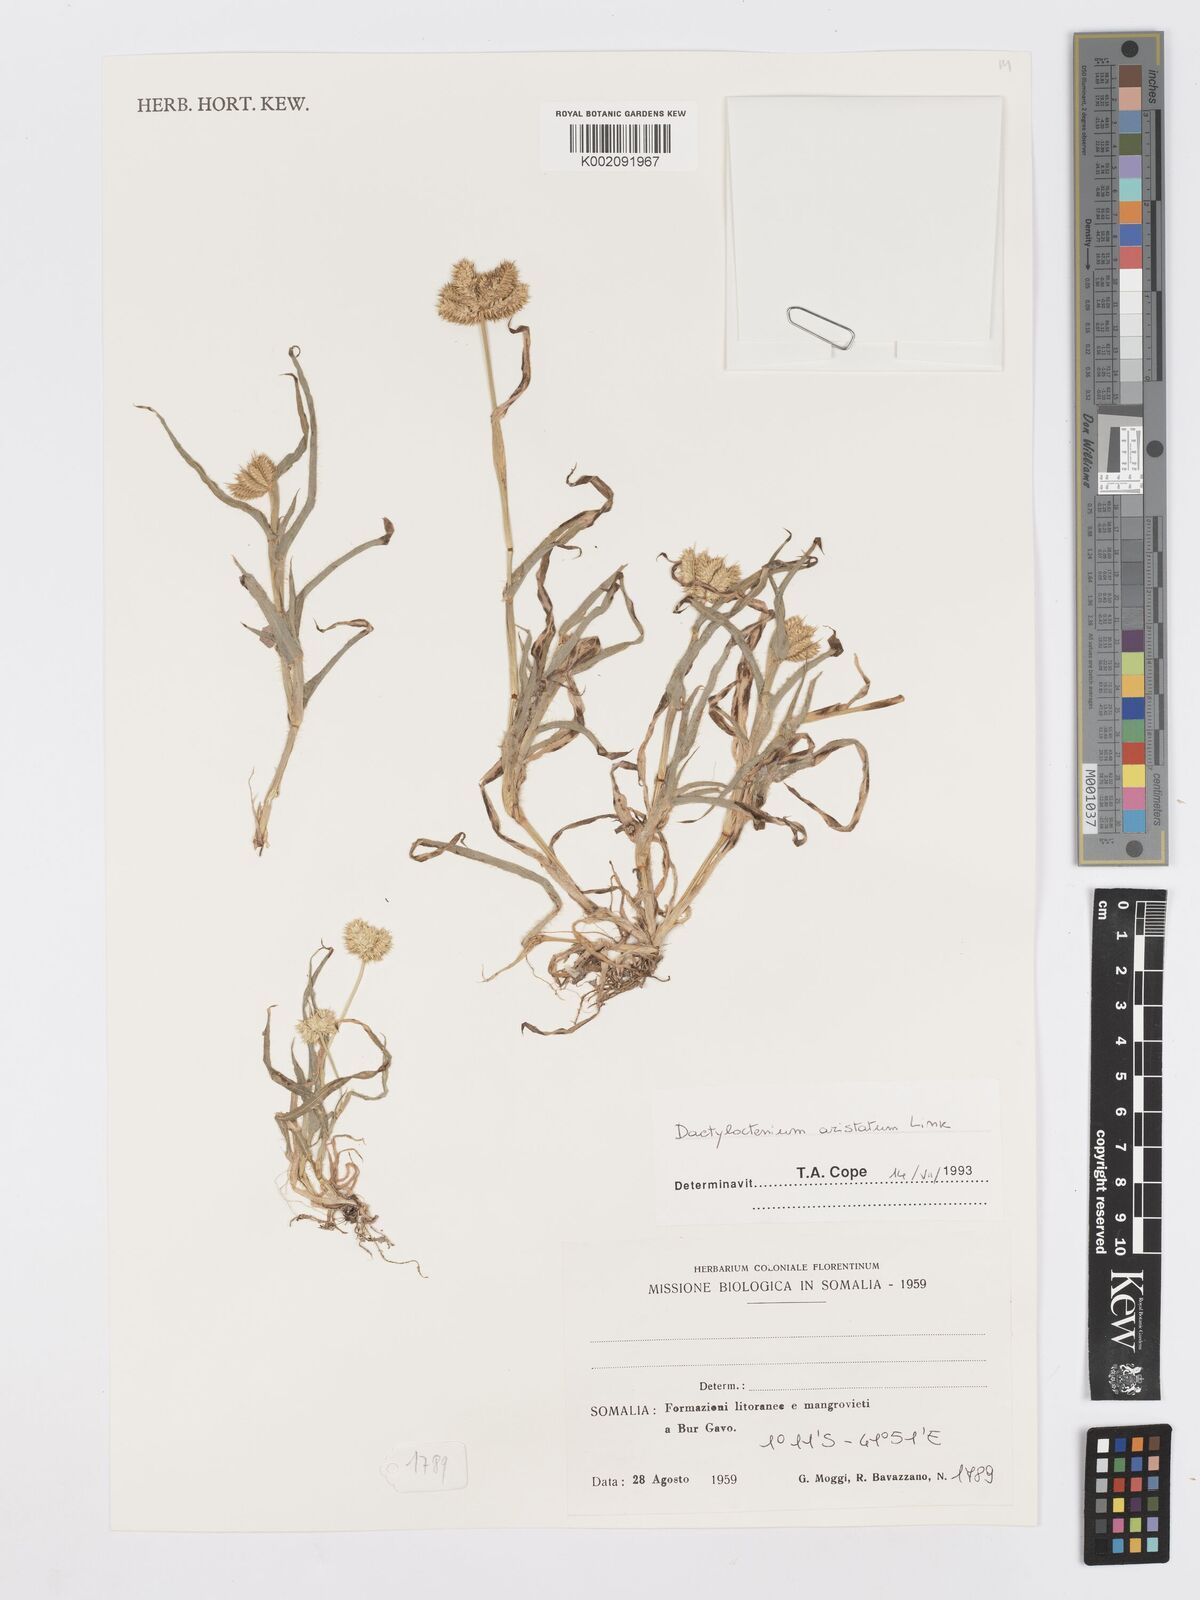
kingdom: Plantae
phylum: Tracheophyta
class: Liliopsida
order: Poales
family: Poaceae
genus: Dactyloctenium
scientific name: Dactyloctenium aristatum
